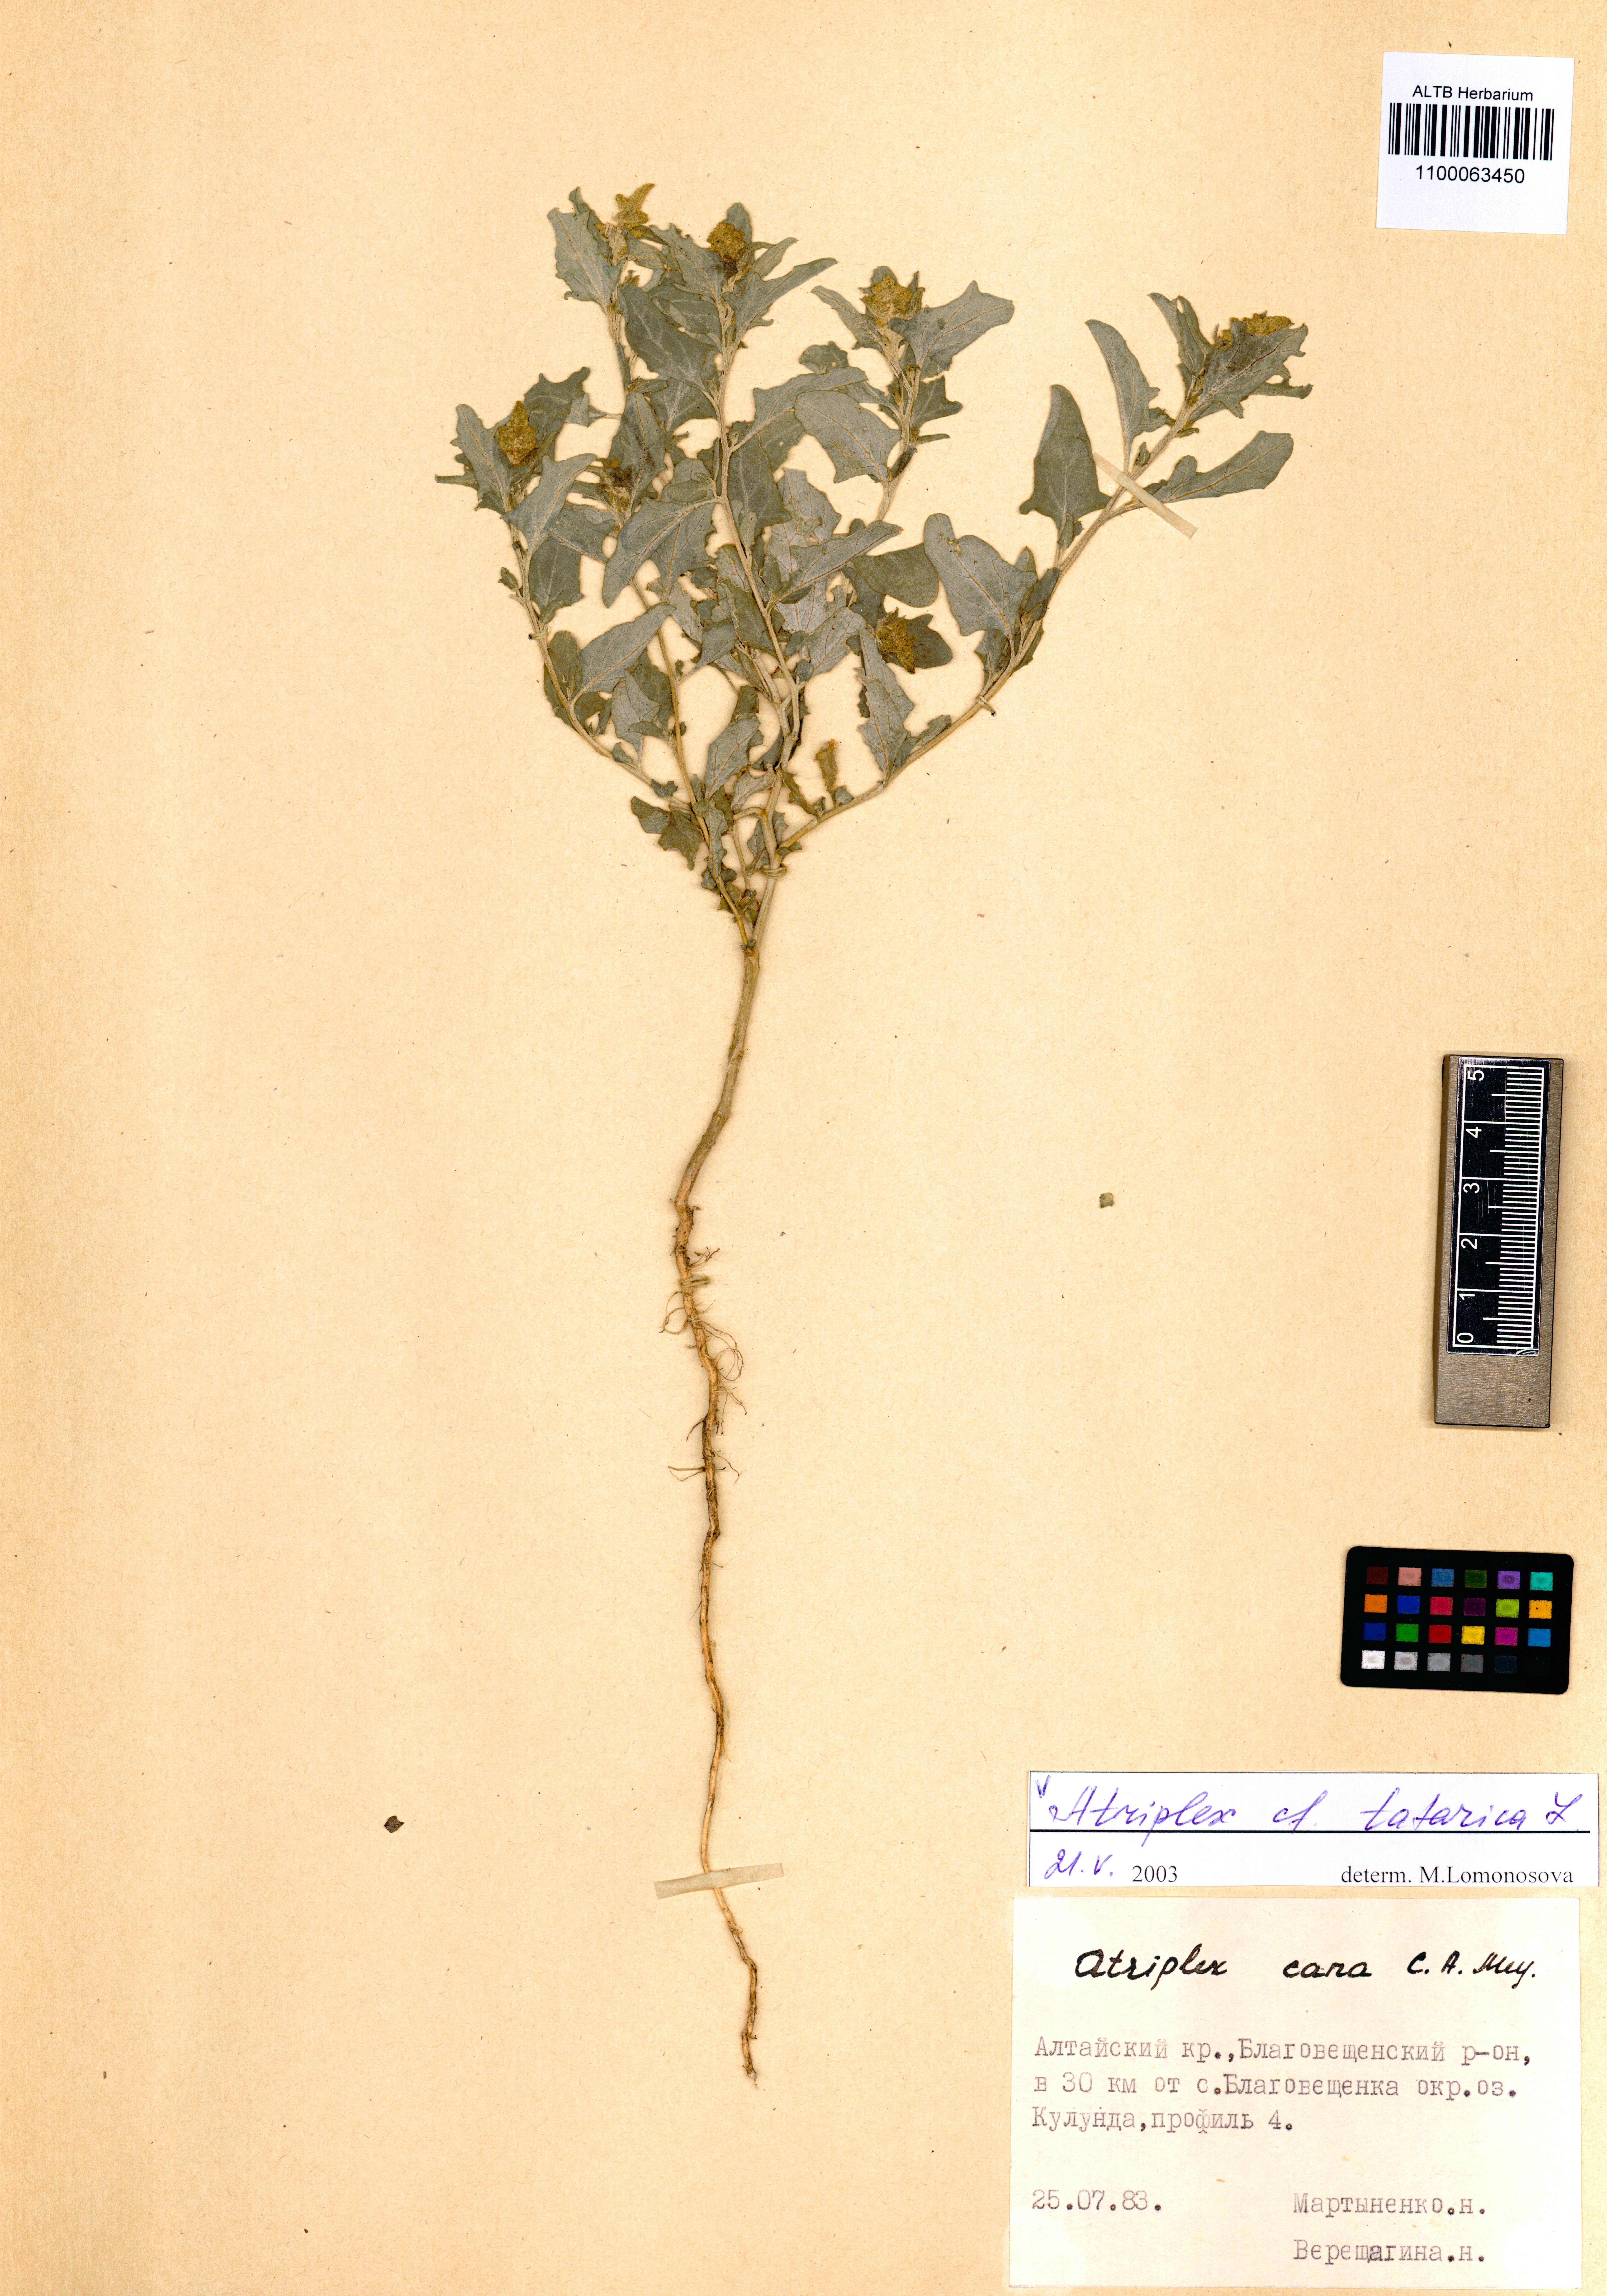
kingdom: Plantae
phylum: Tracheophyta
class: Magnoliopsida
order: Caryophyllales
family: Amaranthaceae
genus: Atriplex
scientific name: Atriplex tatarica
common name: Tatarian orache
